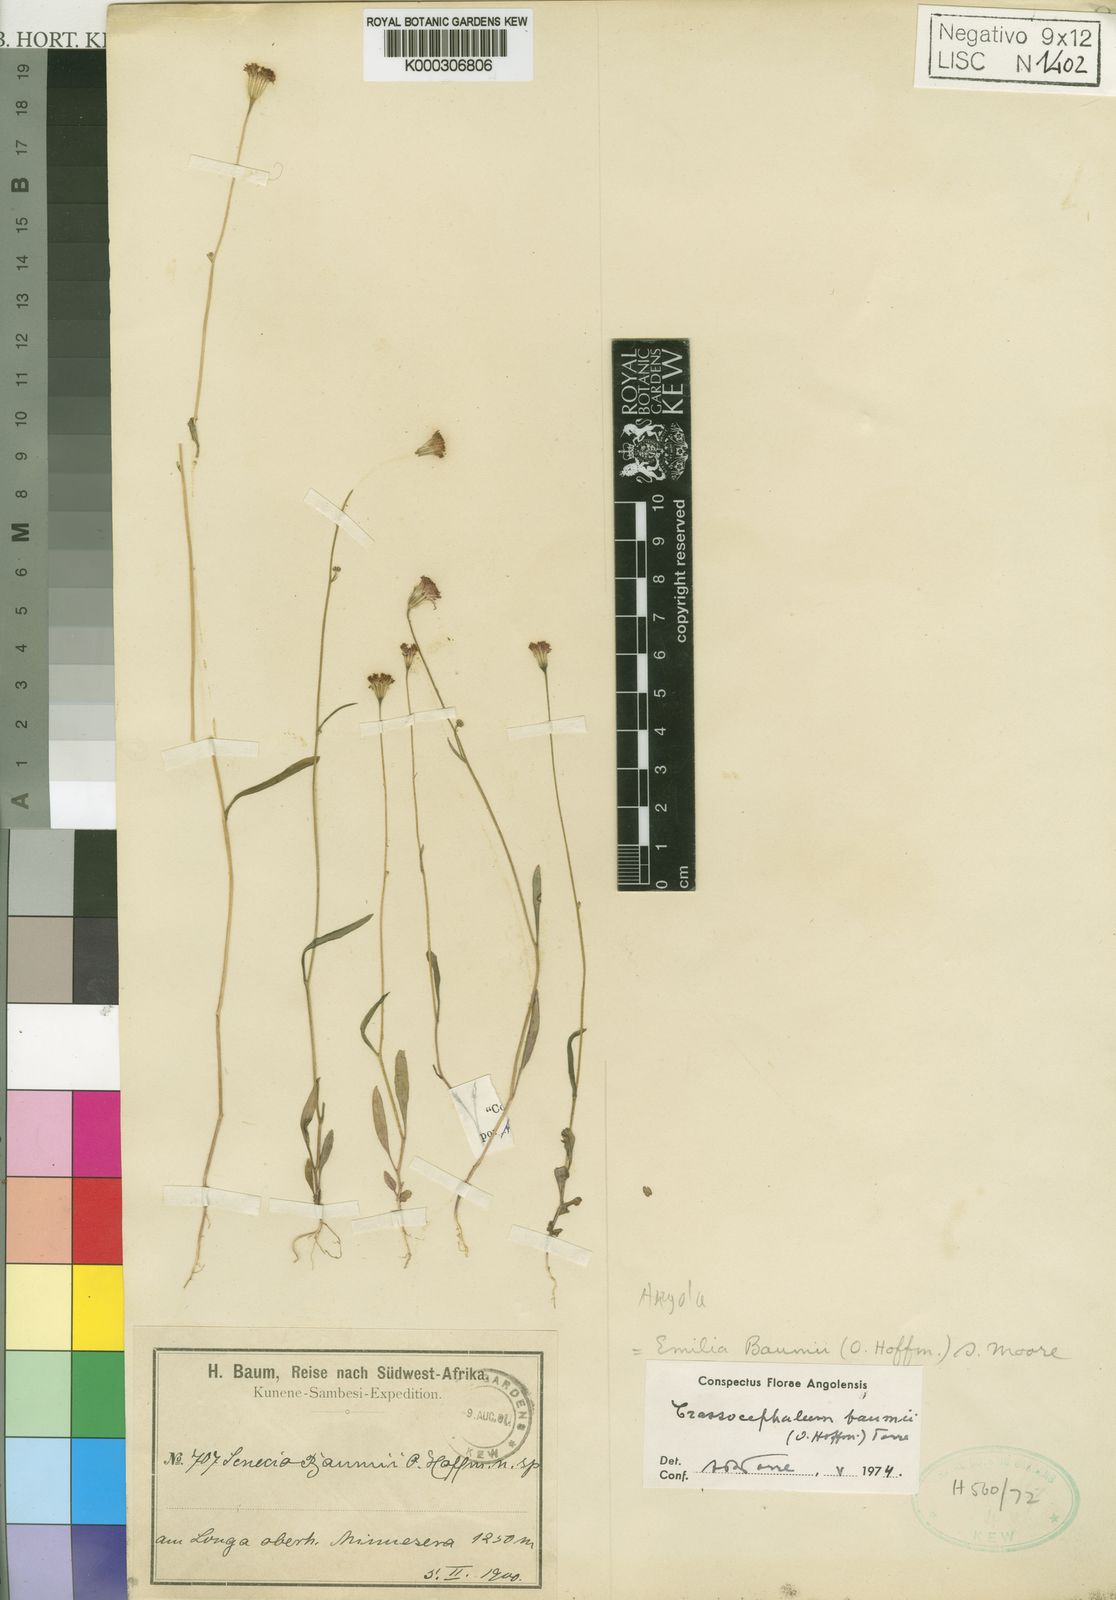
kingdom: Plantae
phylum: Tracheophyta
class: Magnoliopsida
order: Asterales
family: Asteraceae
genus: Emilia
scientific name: Emilia baumii
